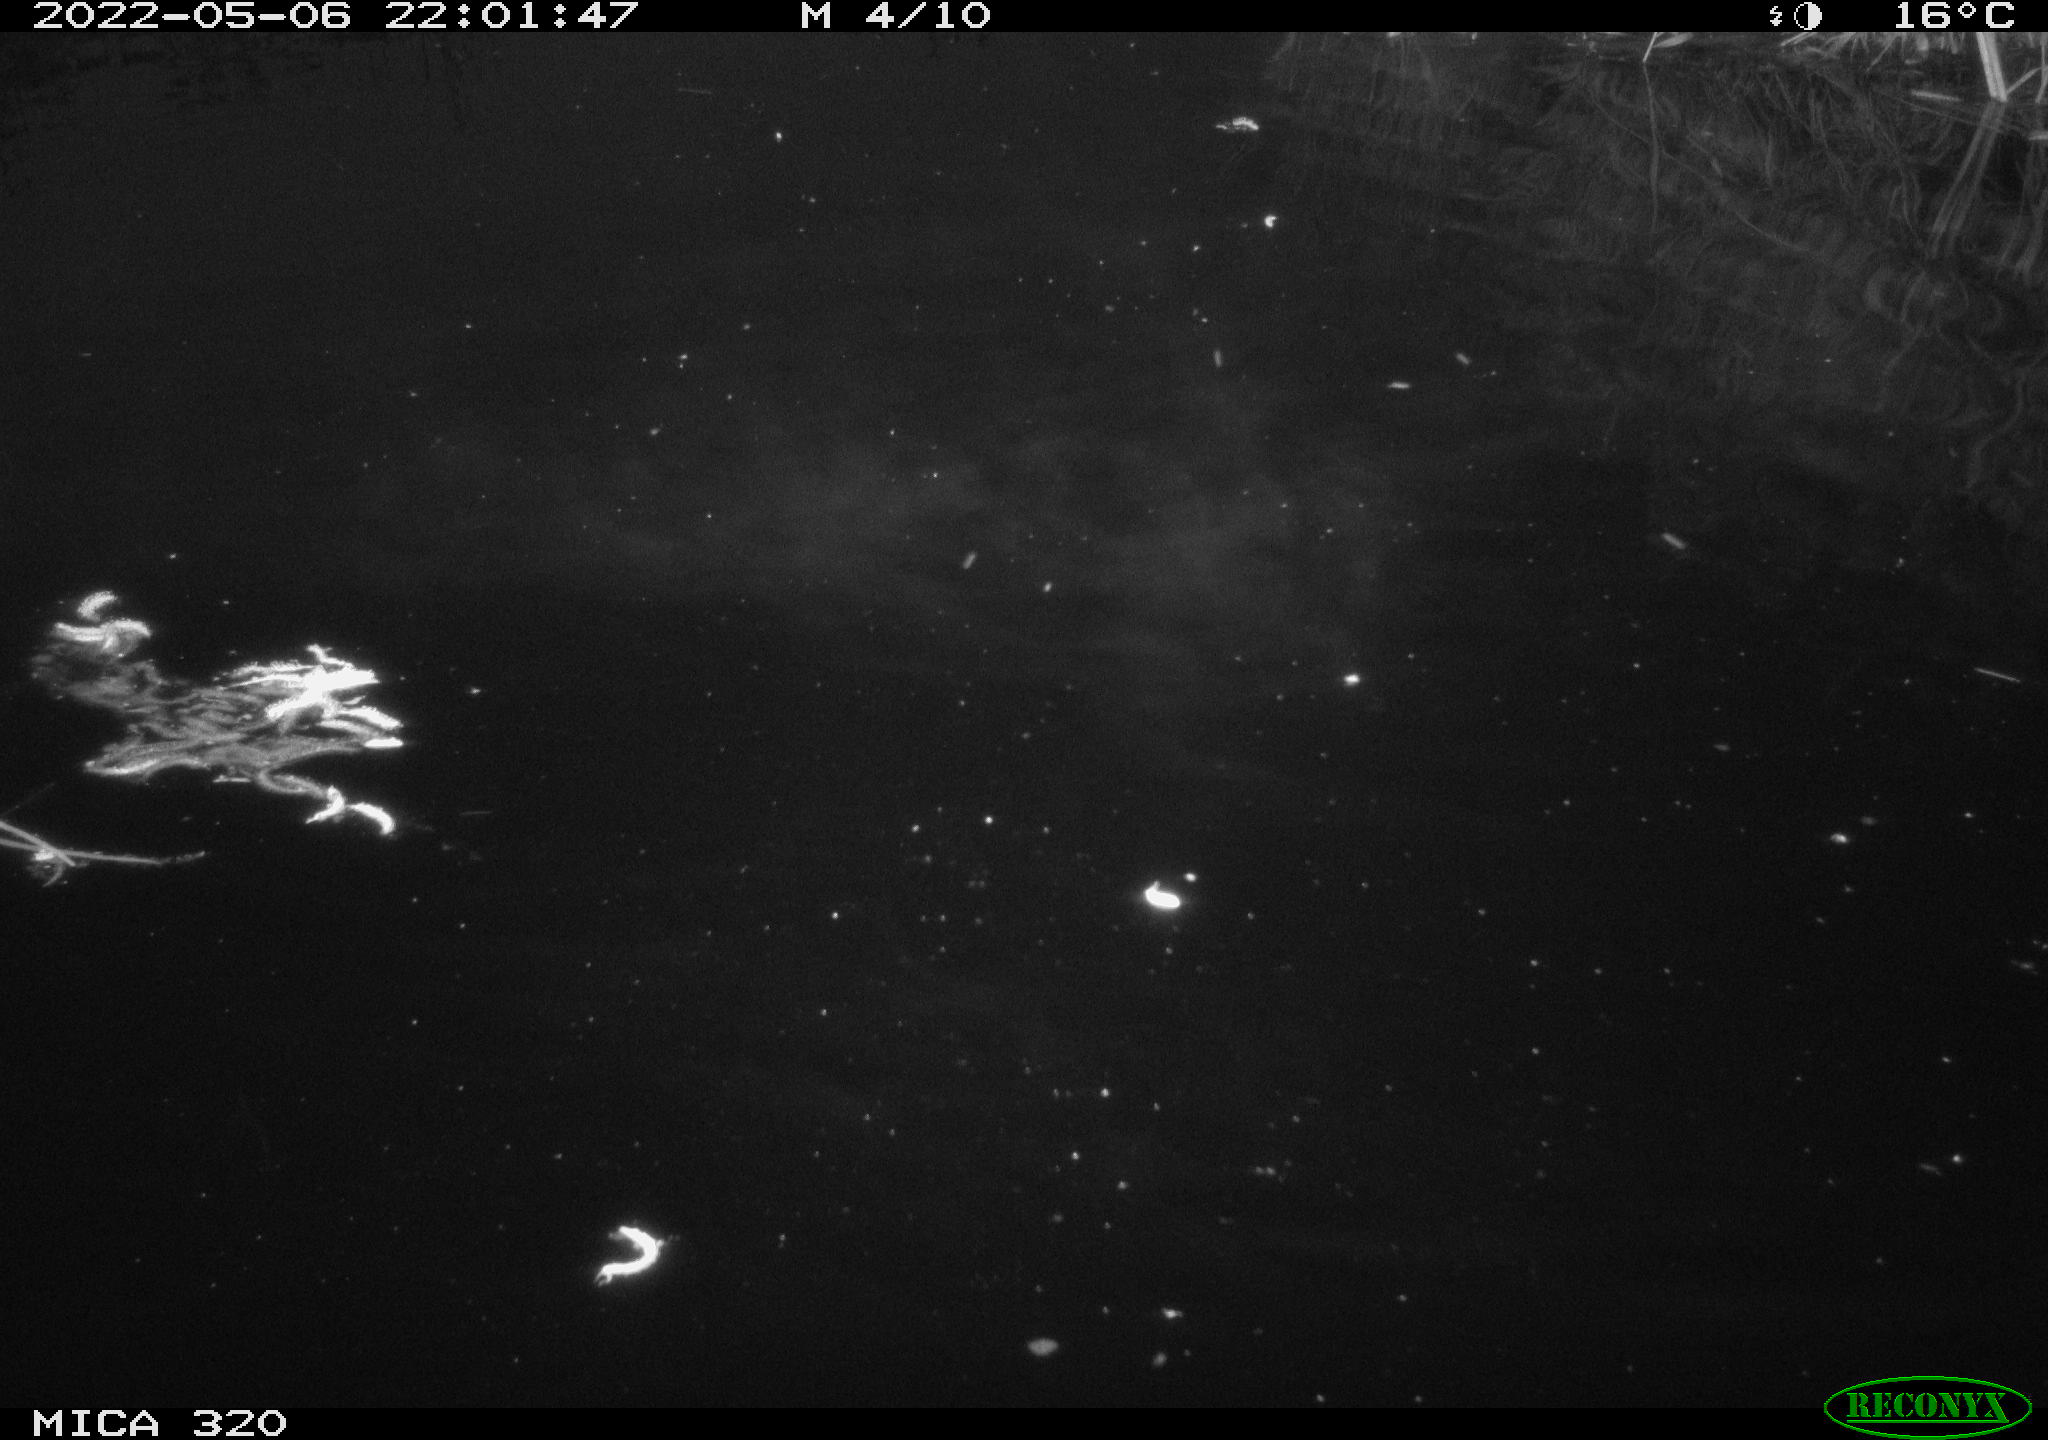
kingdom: Animalia
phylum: Chordata
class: Aves
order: Gruiformes
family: Rallidae
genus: Gallinula
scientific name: Gallinula chloropus
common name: Common moorhen
